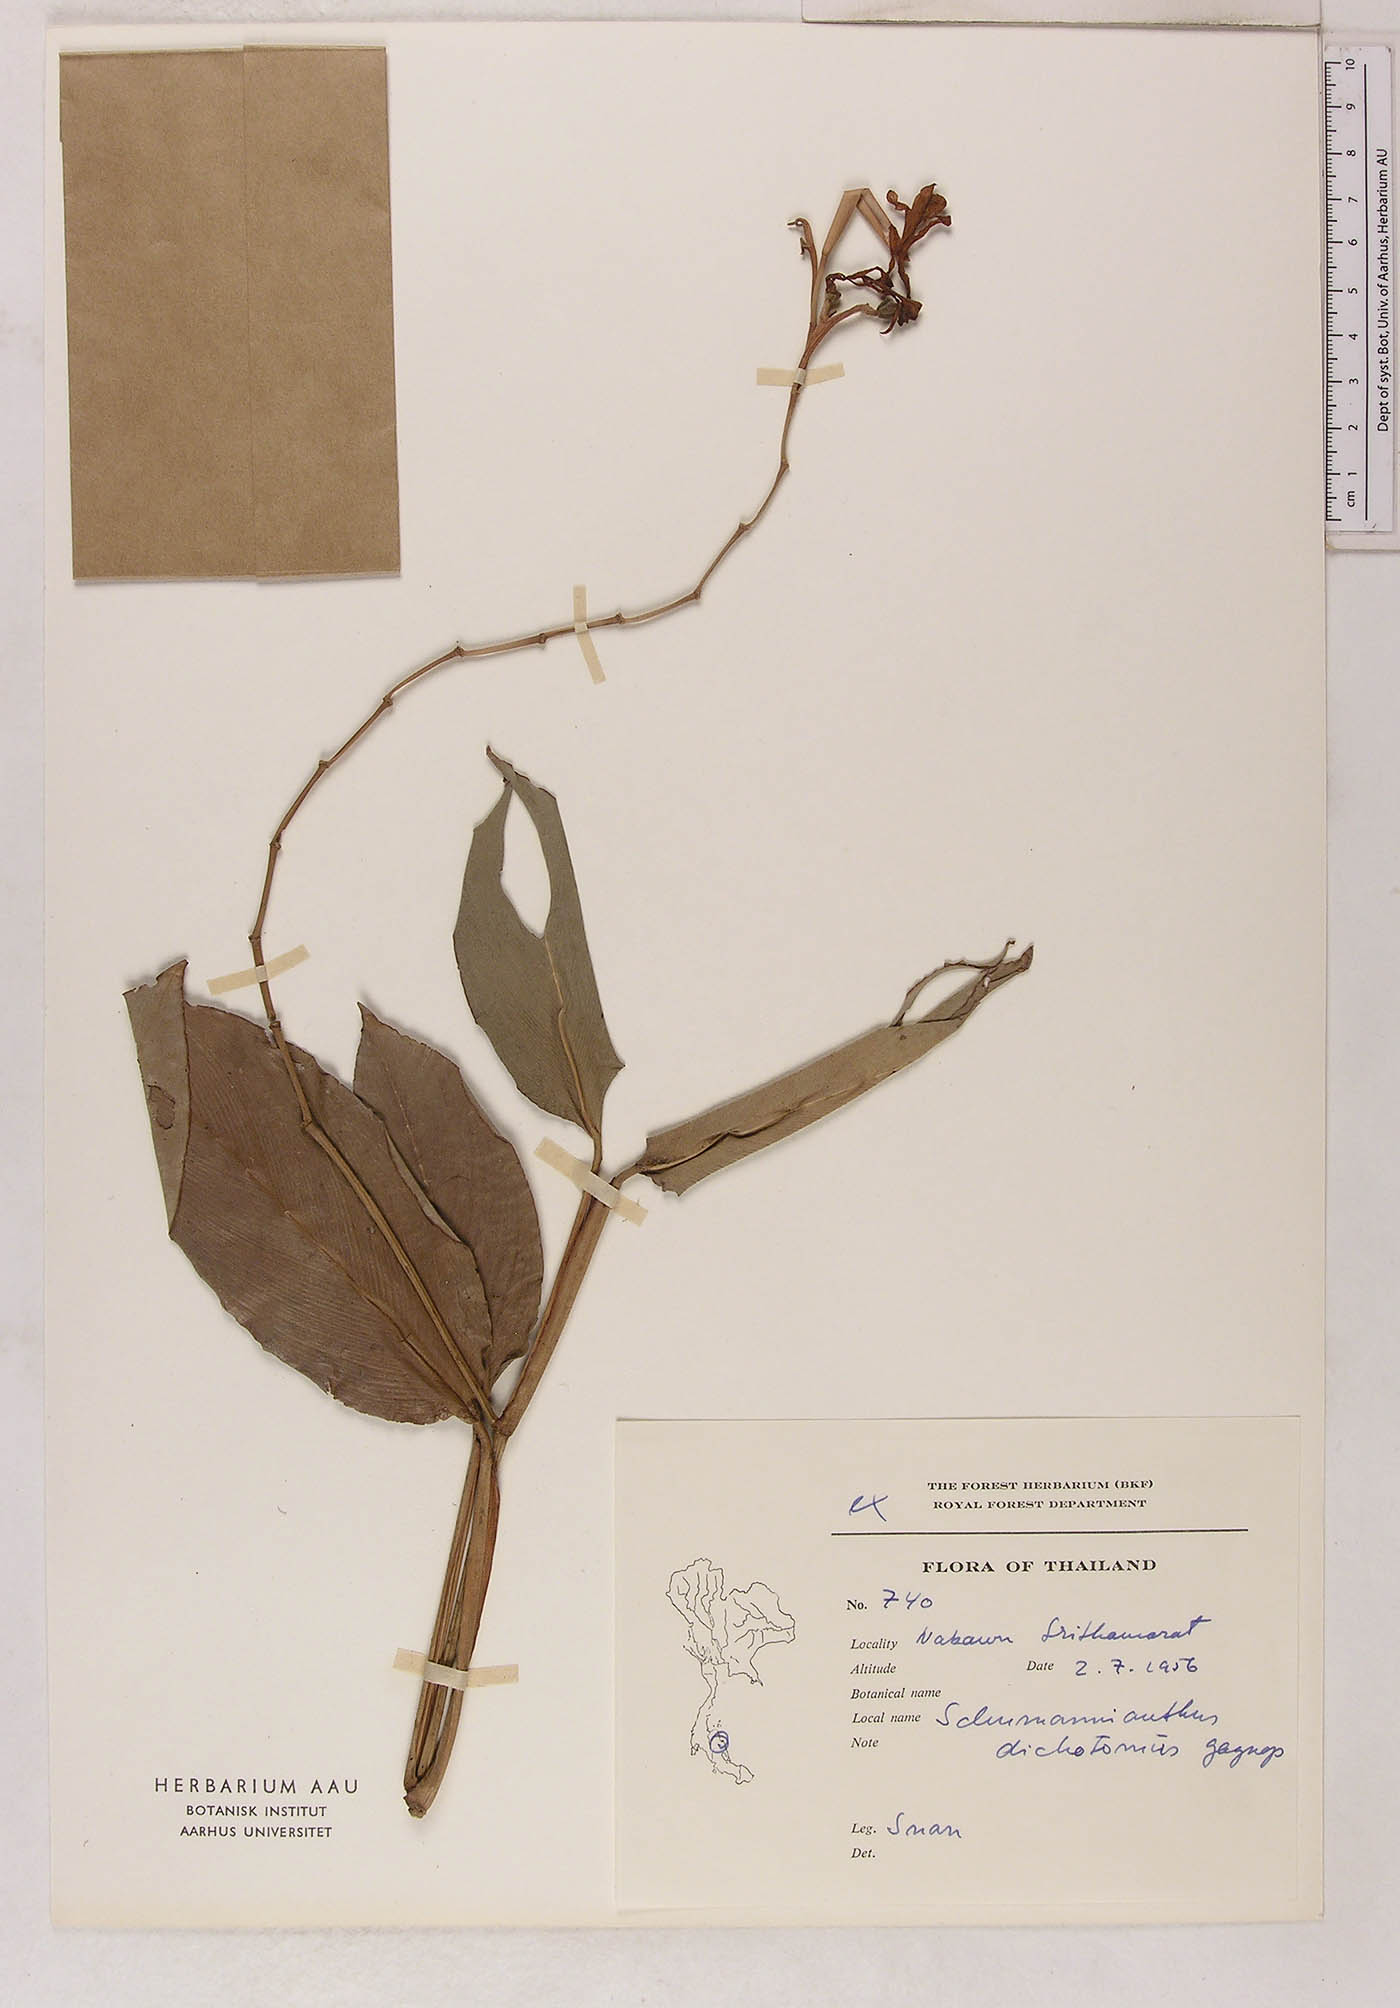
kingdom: Plantae
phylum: Tracheophyta
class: Liliopsida
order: Zingiberales
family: Marantaceae
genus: Schumannianthus
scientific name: Schumannianthus benthamianus
